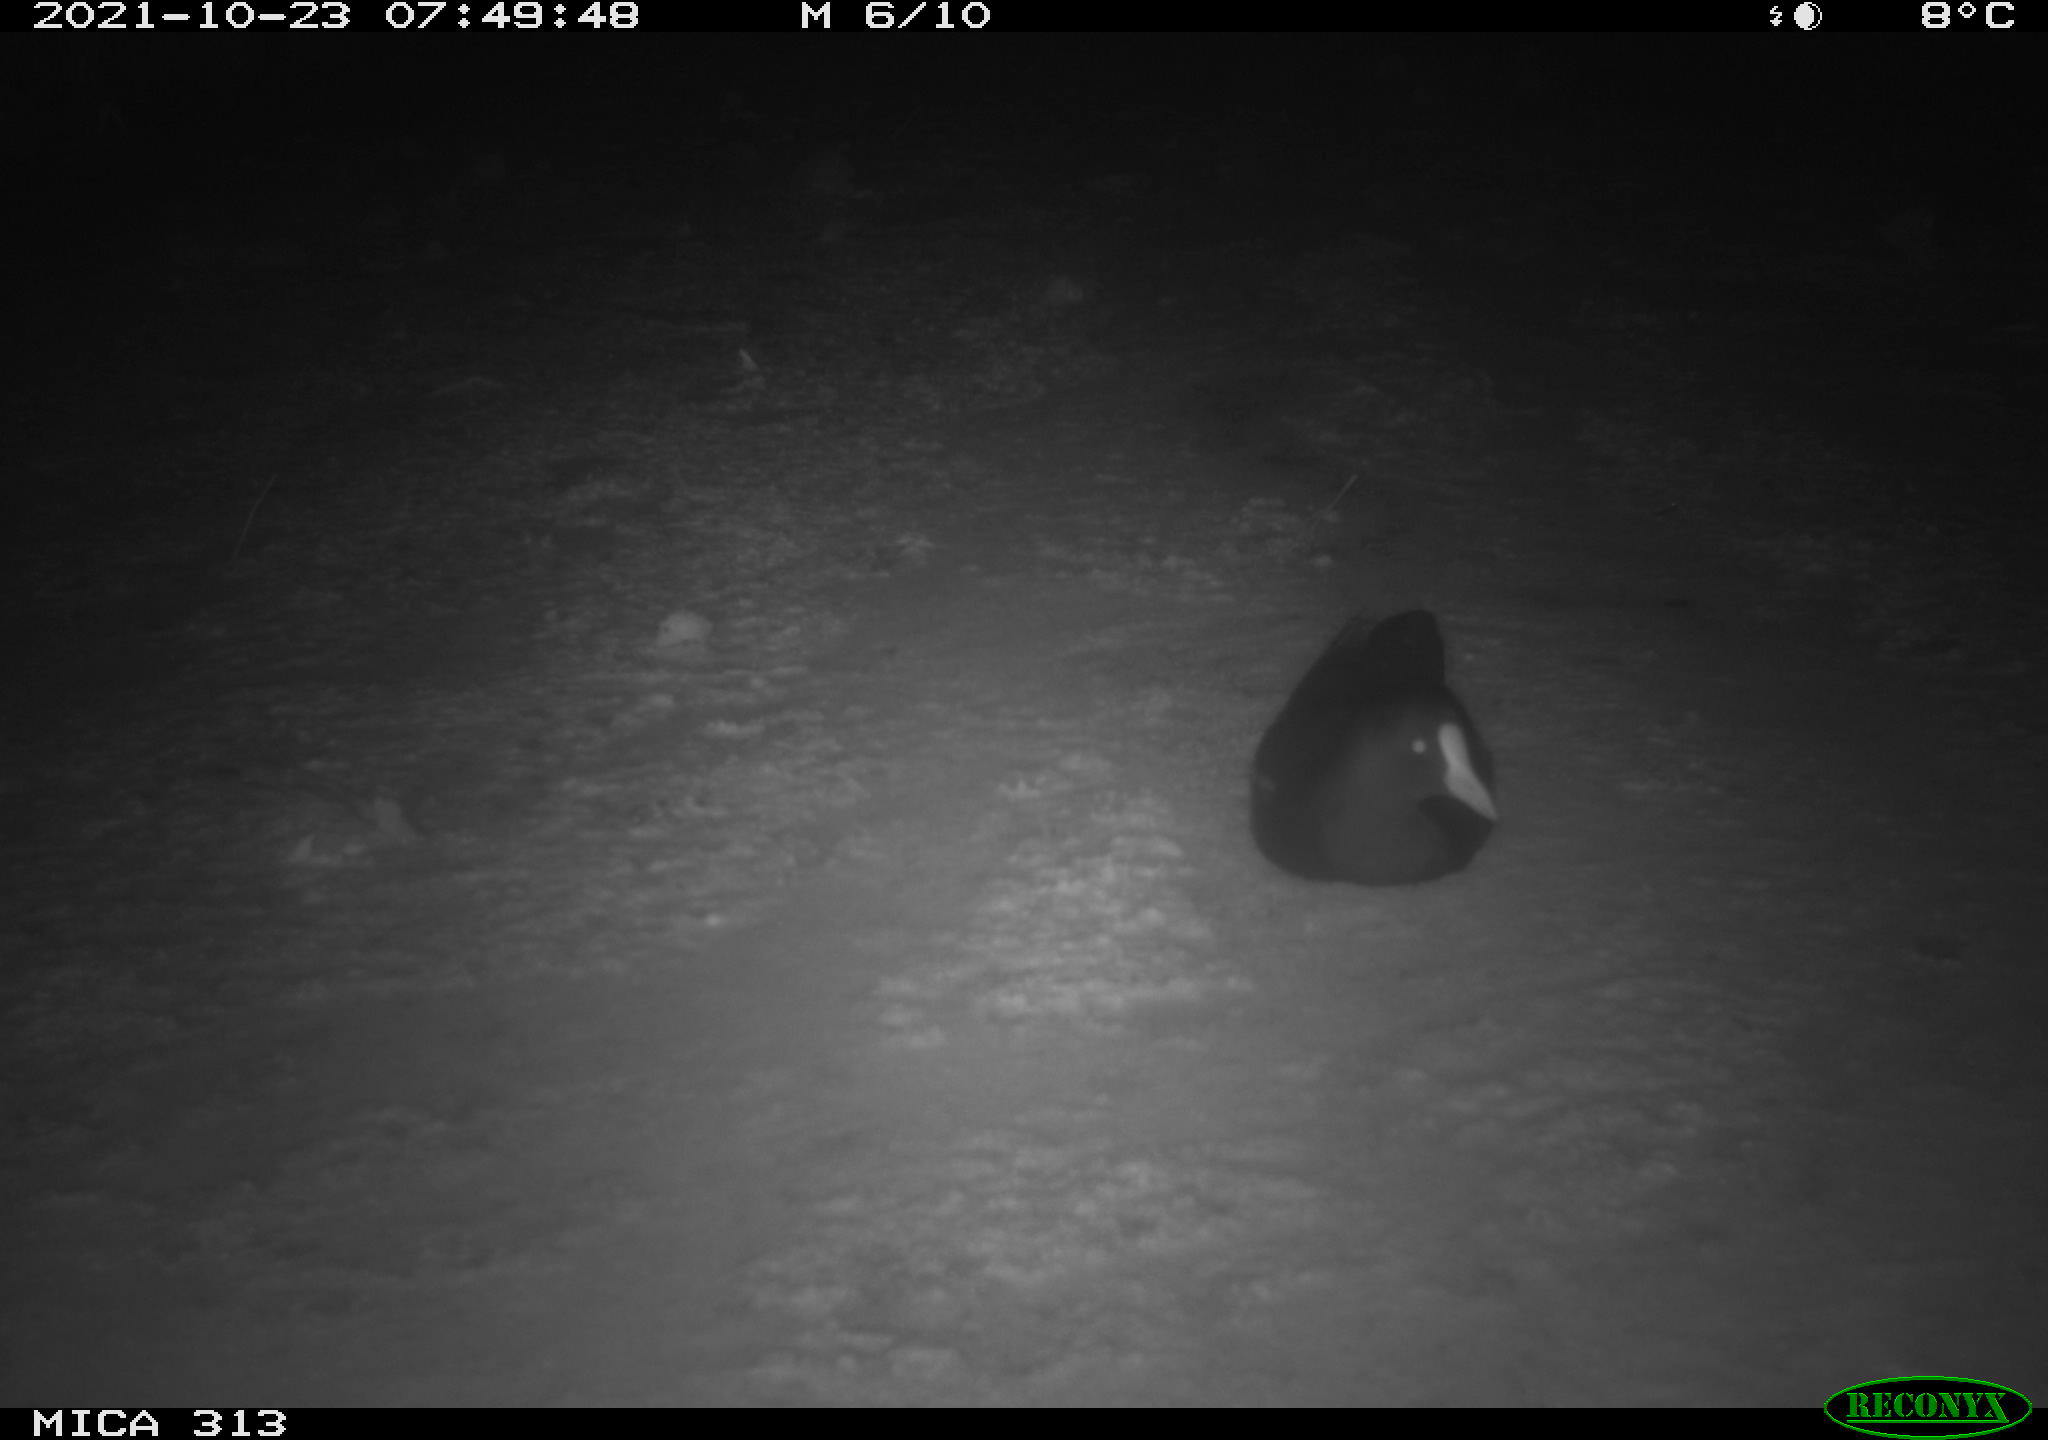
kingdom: Animalia
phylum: Chordata
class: Aves
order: Gruiformes
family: Rallidae
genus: Fulica
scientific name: Fulica atra
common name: Eurasian coot
